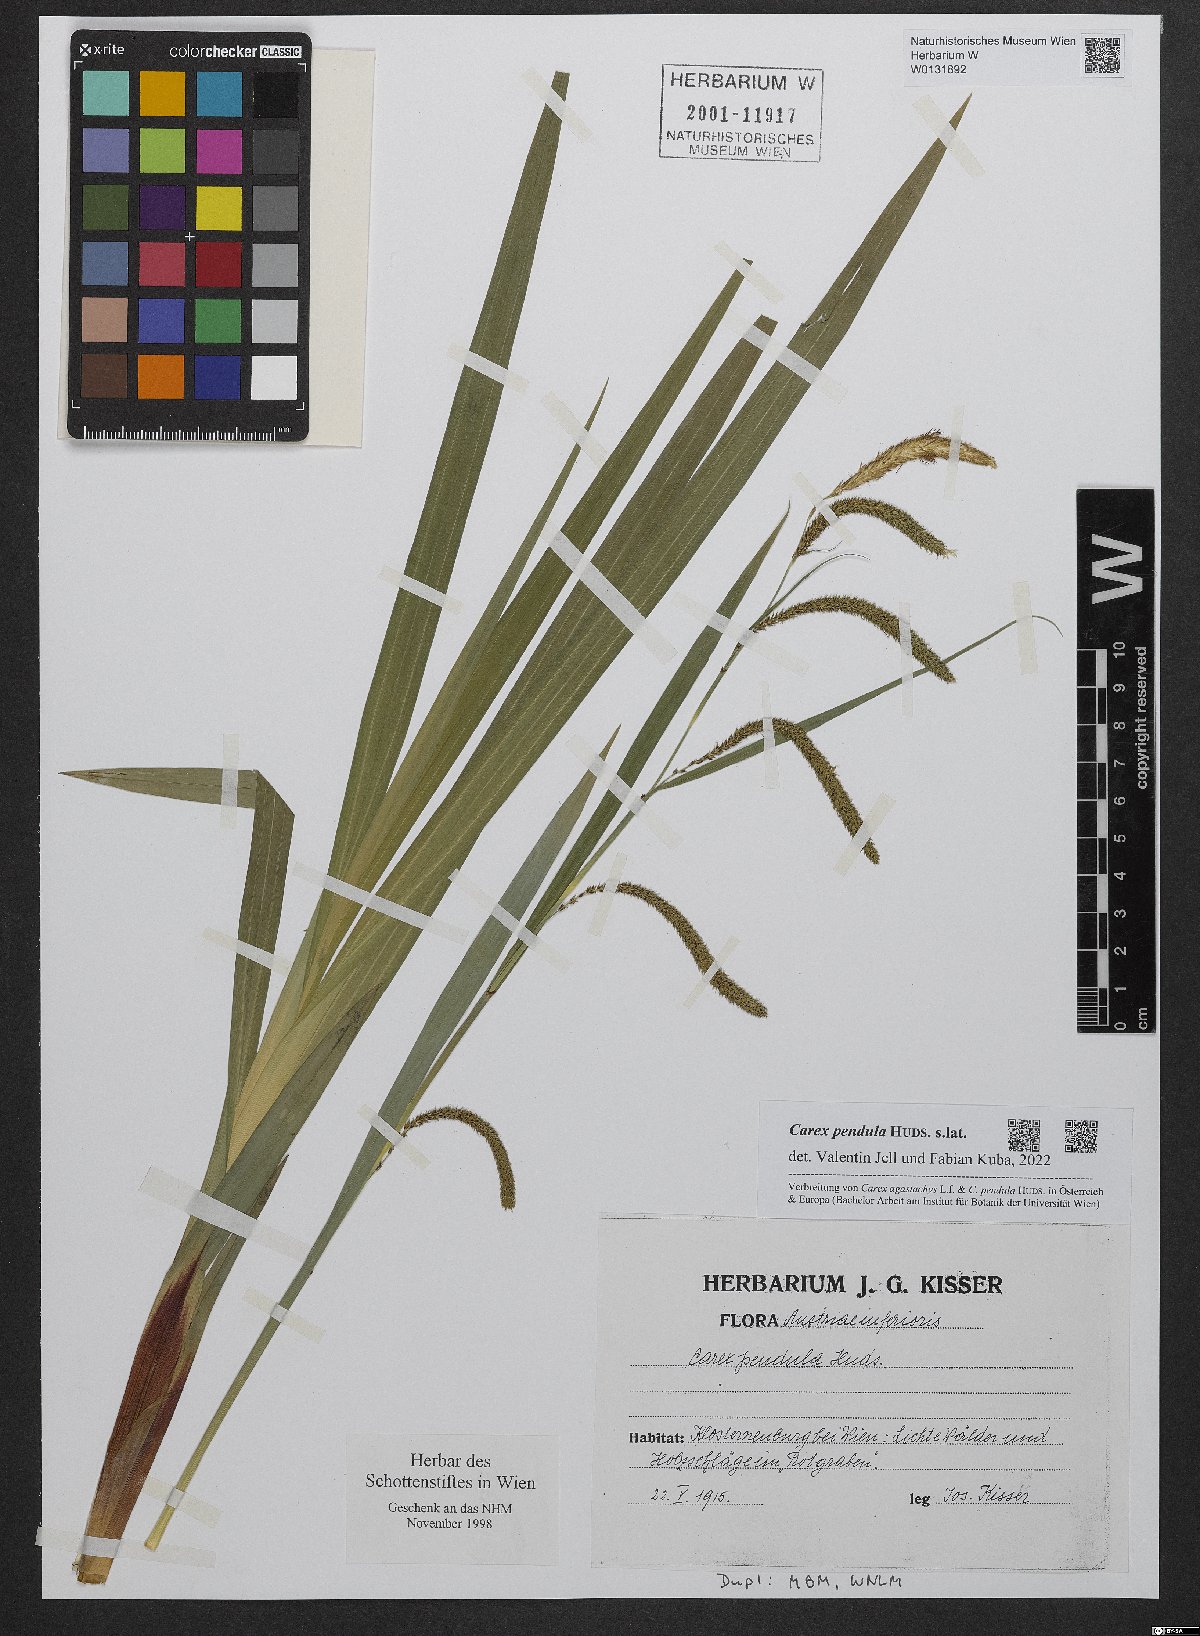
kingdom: Plantae
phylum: Tracheophyta
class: Liliopsida
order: Poales
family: Cyperaceae
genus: Carex
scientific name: Carex pendula
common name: Pendulous sedge
